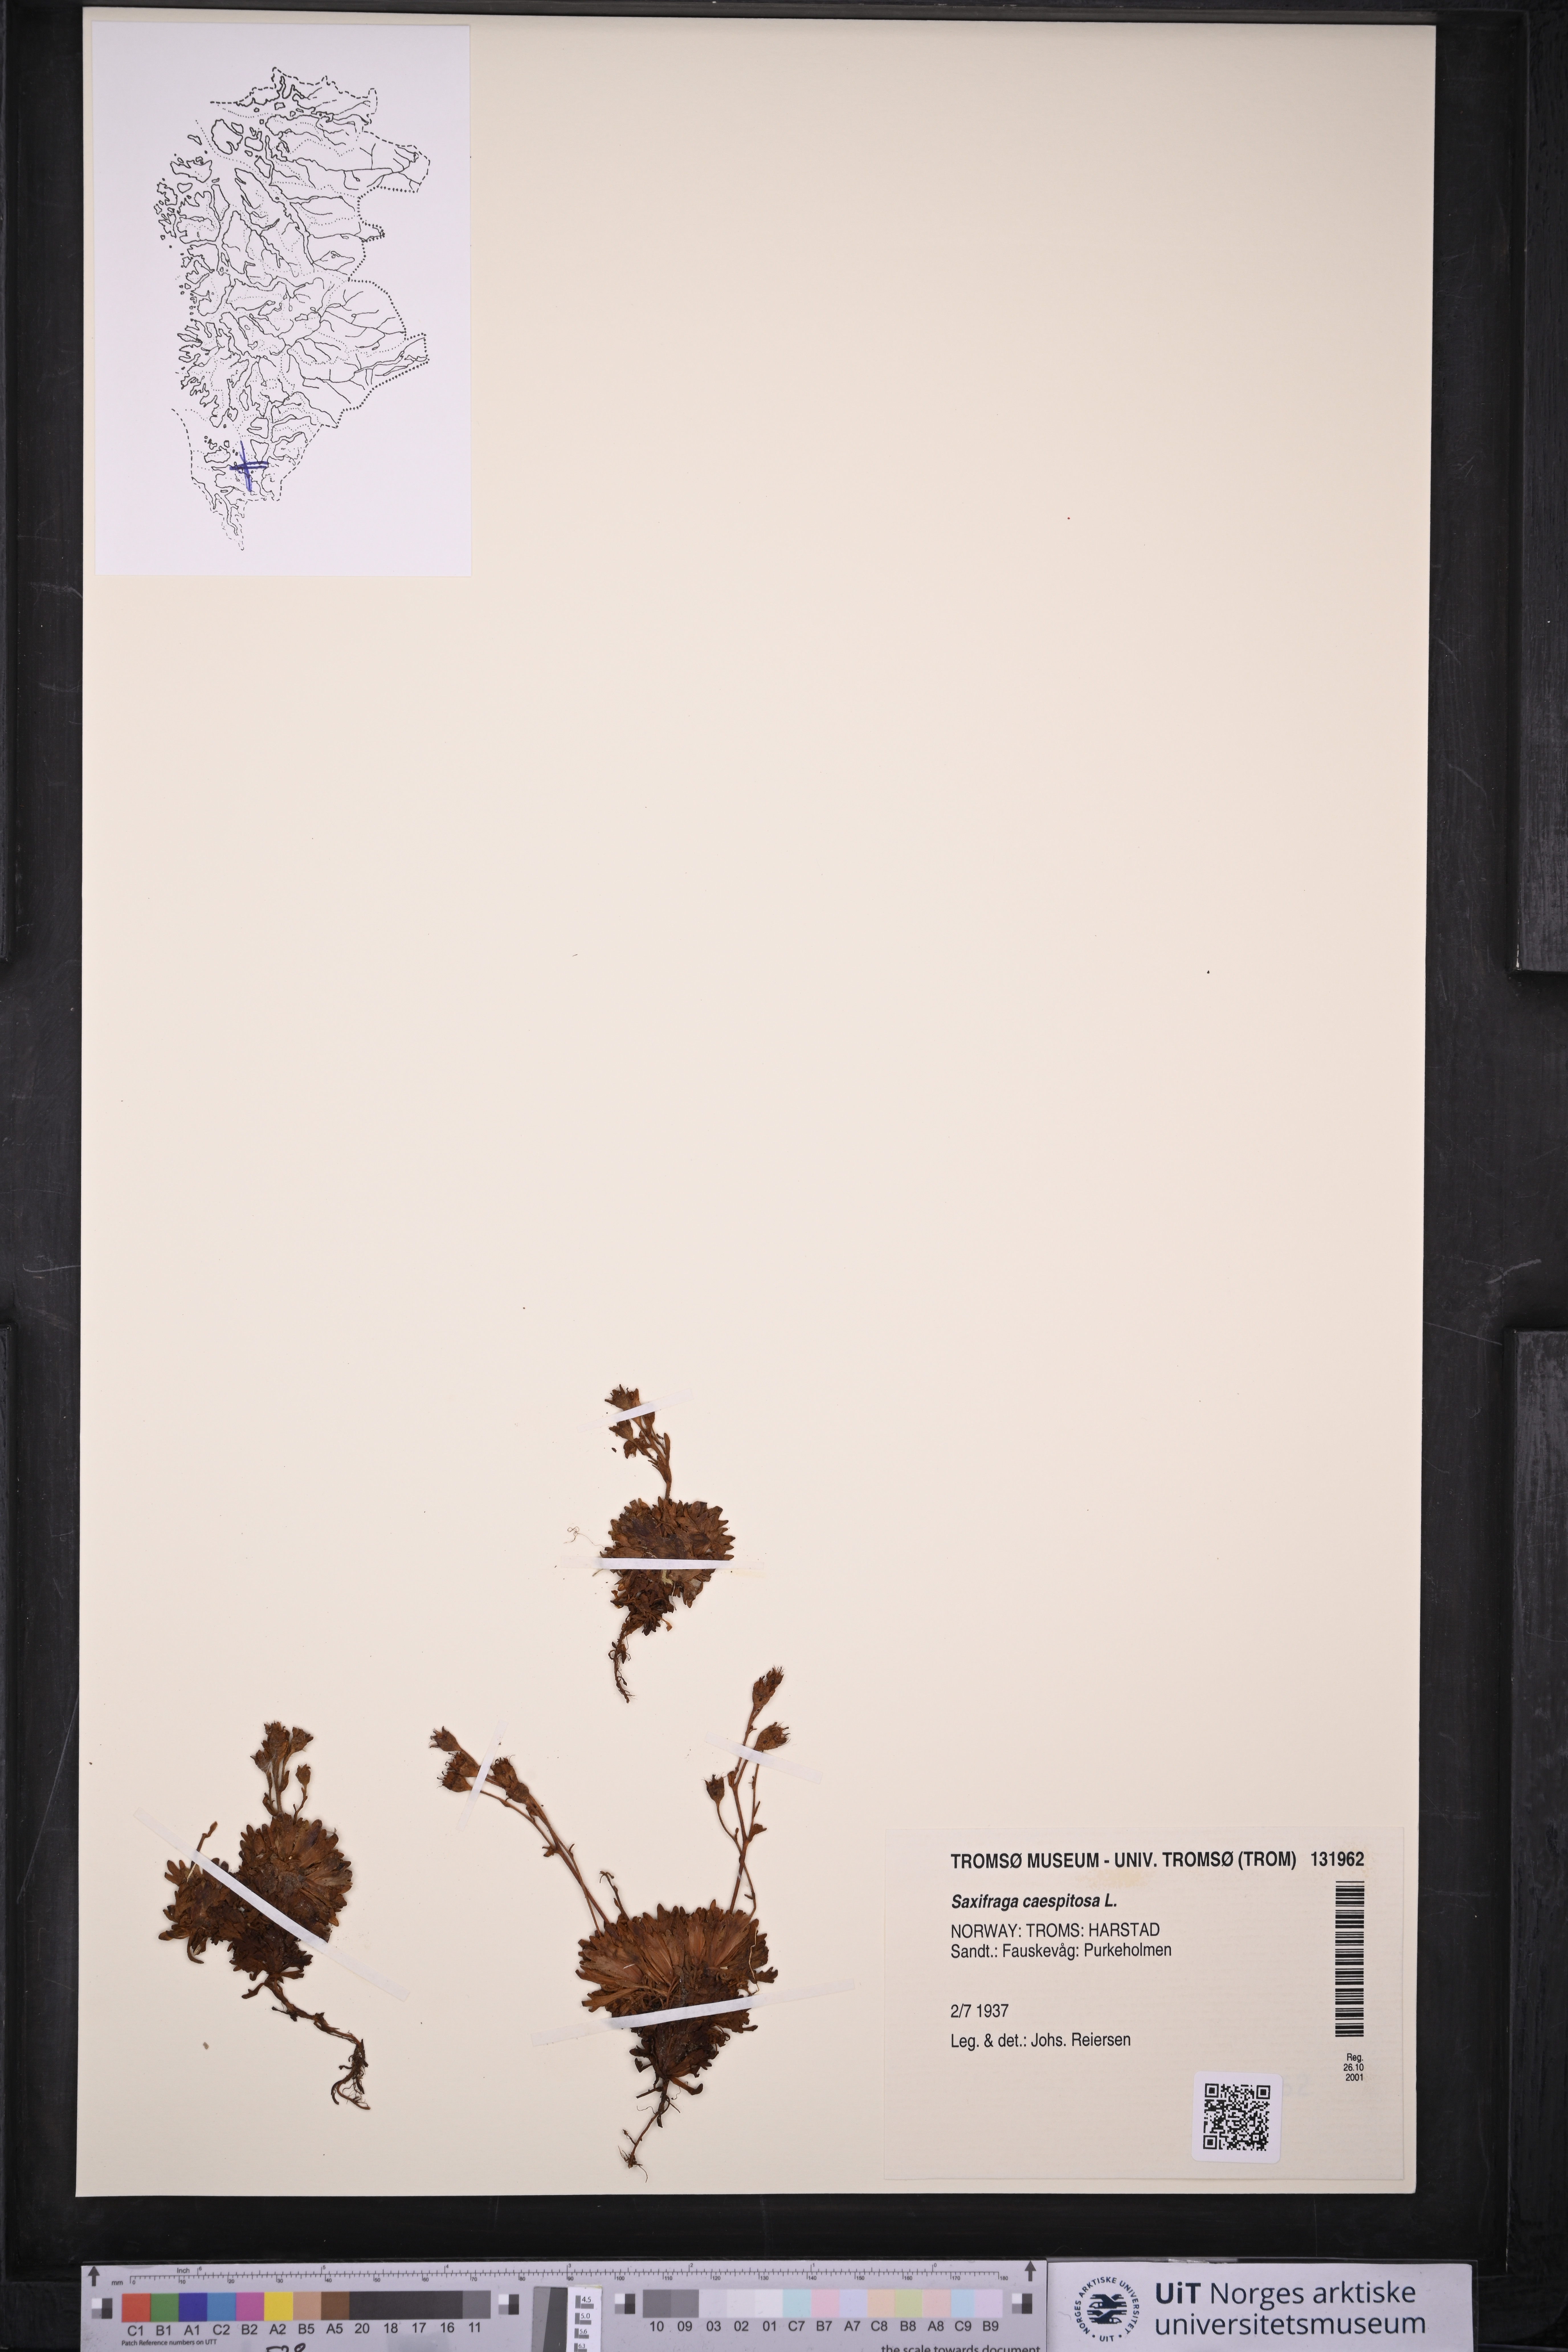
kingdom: Plantae
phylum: Tracheophyta
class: Magnoliopsida
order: Saxifragales
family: Saxifragaceae
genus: Saxifraga
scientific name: Saxifraga cespitosa
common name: Tufted saxifrage
